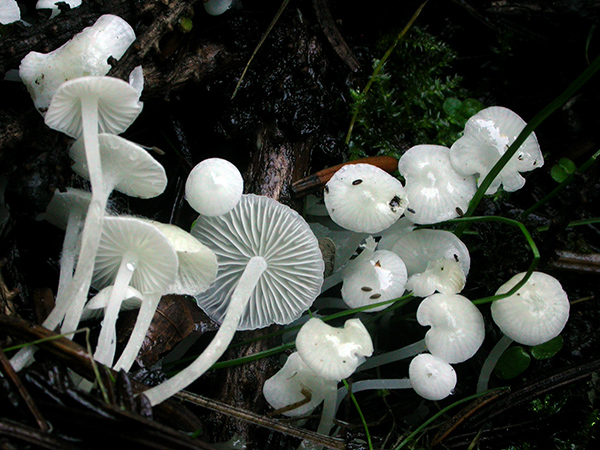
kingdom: Fungi
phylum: Basidiomycota
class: Agaricomycetes
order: Agaricales
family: Mycenaceae
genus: Hemimycena
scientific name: Hemimycena lactea
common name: mælkehvid huesvamp
